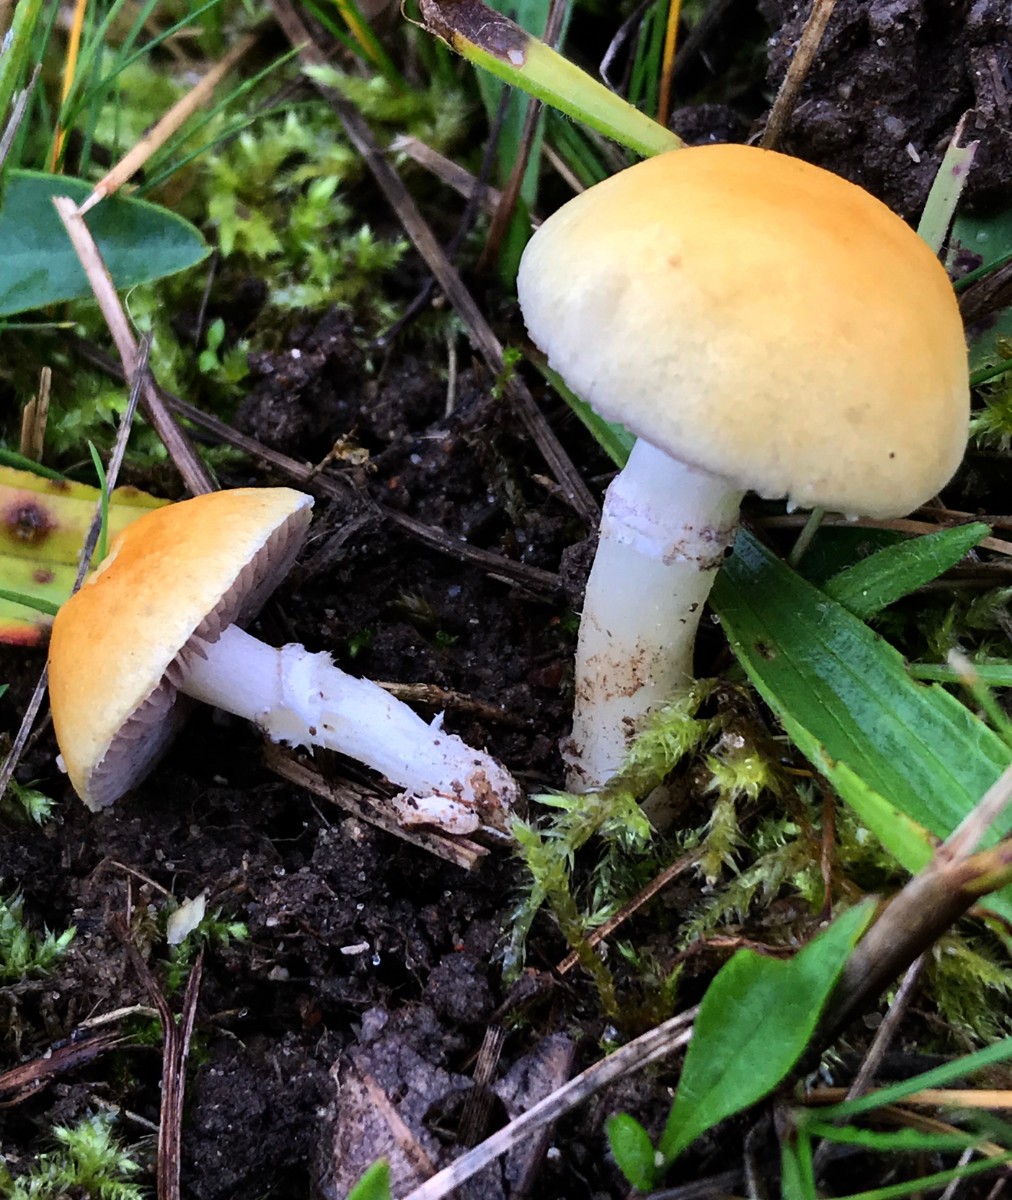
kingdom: Fungi
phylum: Basidiomycota
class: Agaricomycetes
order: Agaricales
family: Hymenogastraceae
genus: Psilocybe
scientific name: Psilocybe coronilla
